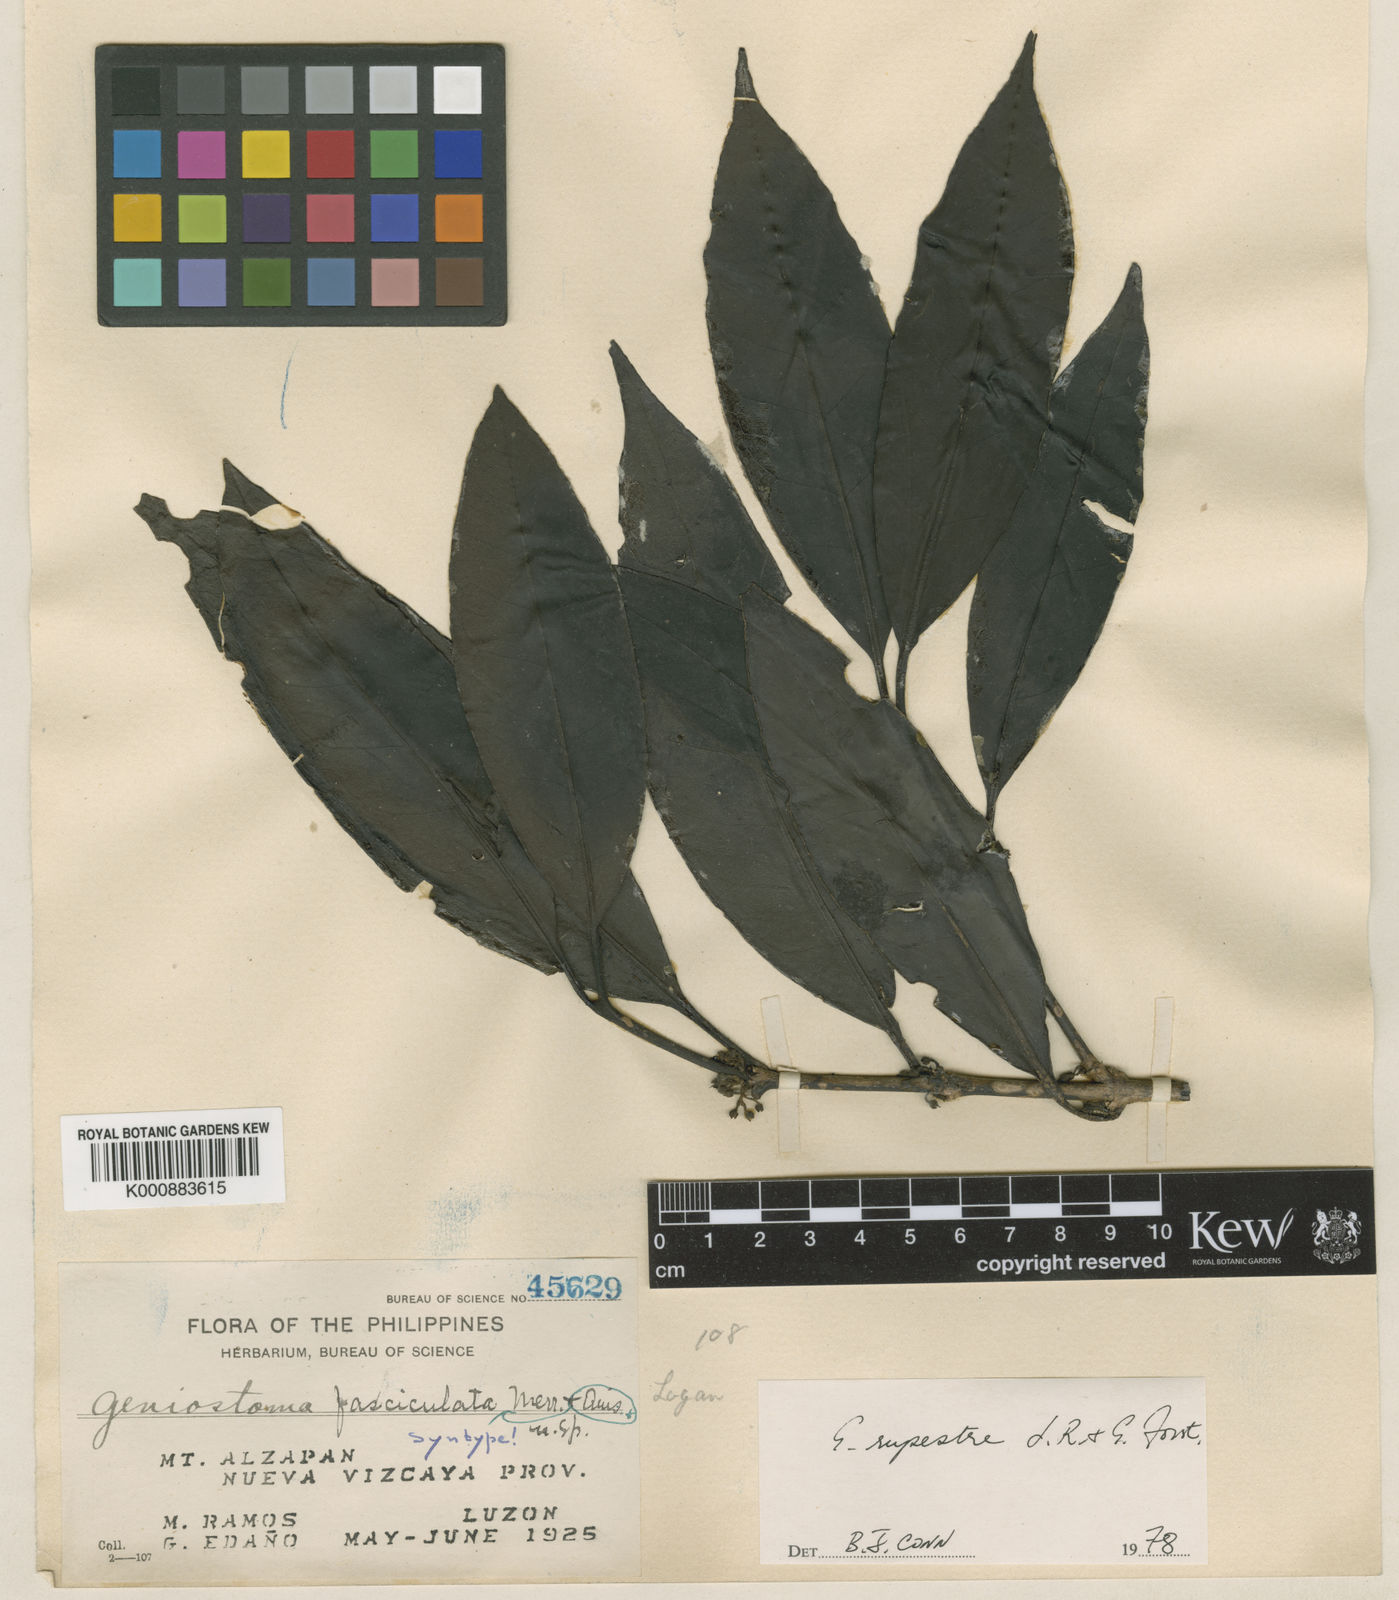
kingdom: Plantae
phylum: Tracheophyta
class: Magnoliopsida
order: Gentianales
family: Loganiaceae
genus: Geniostoma
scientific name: Geniostoma rupestre
